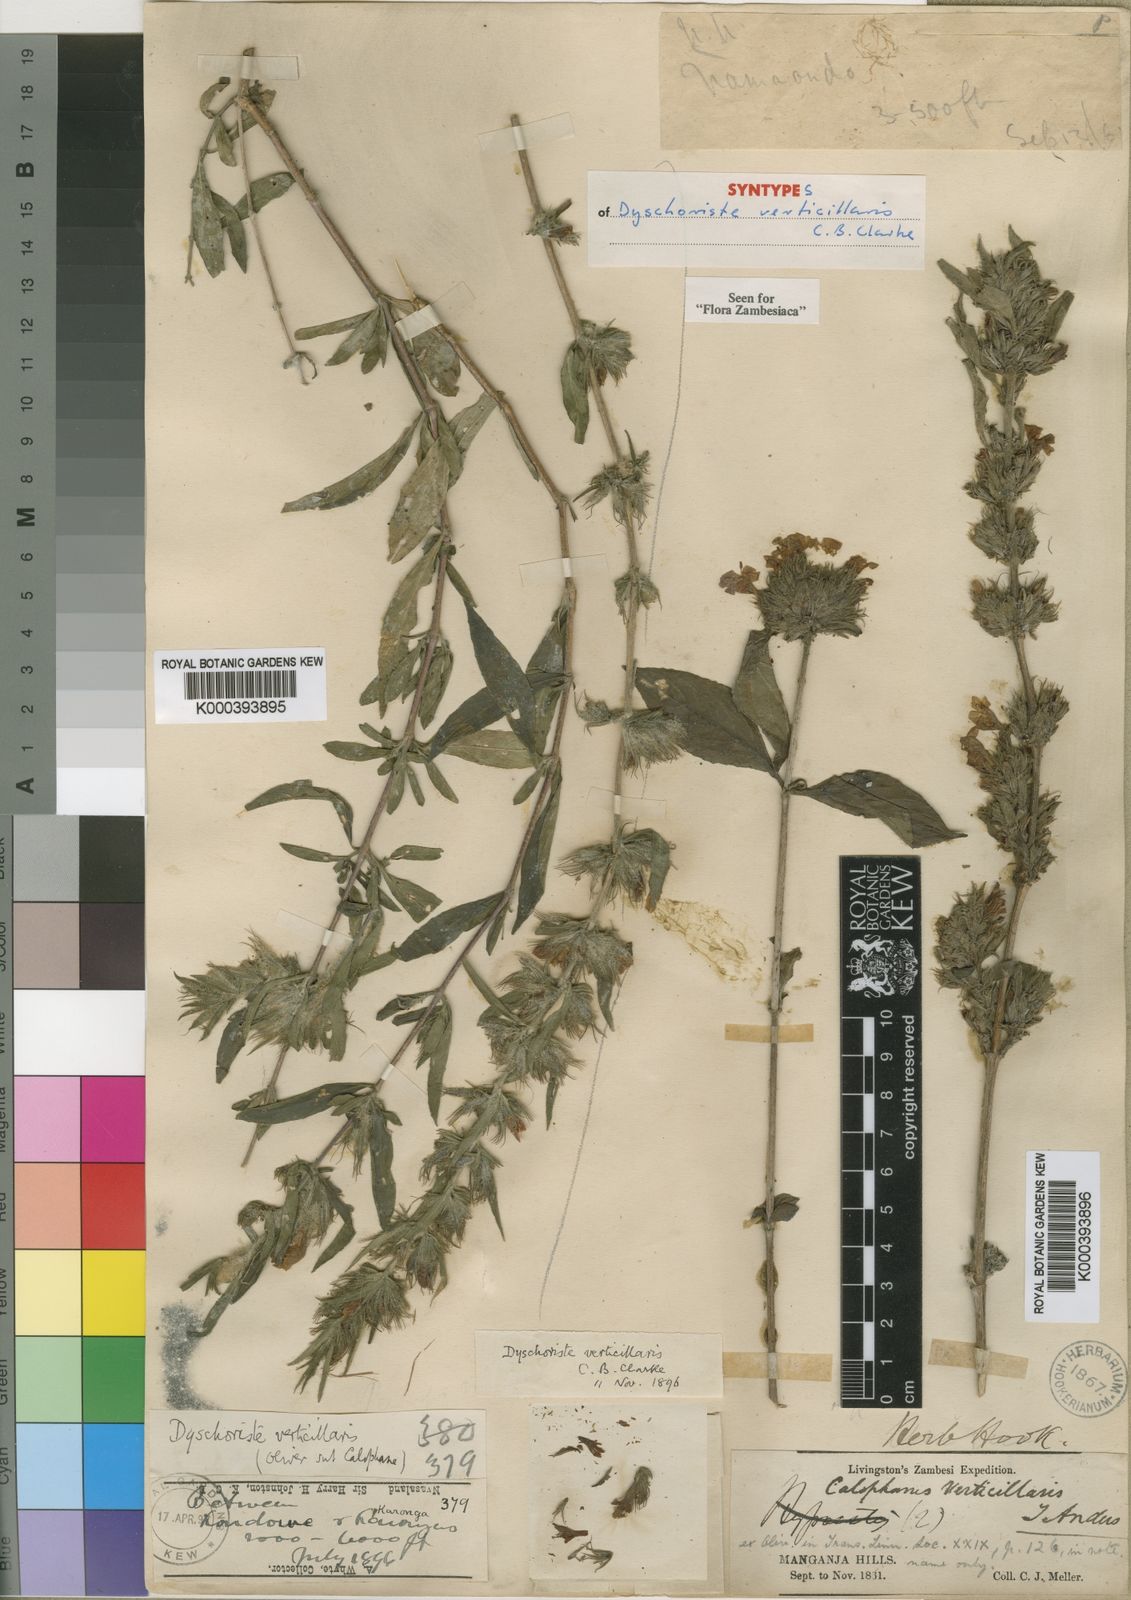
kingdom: Plantae
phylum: Tracheophyta
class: Magnoliopsida
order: Lamiales
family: Acanthaceae
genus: Dyschoriste
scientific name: Dyschoriste trichocalyx
